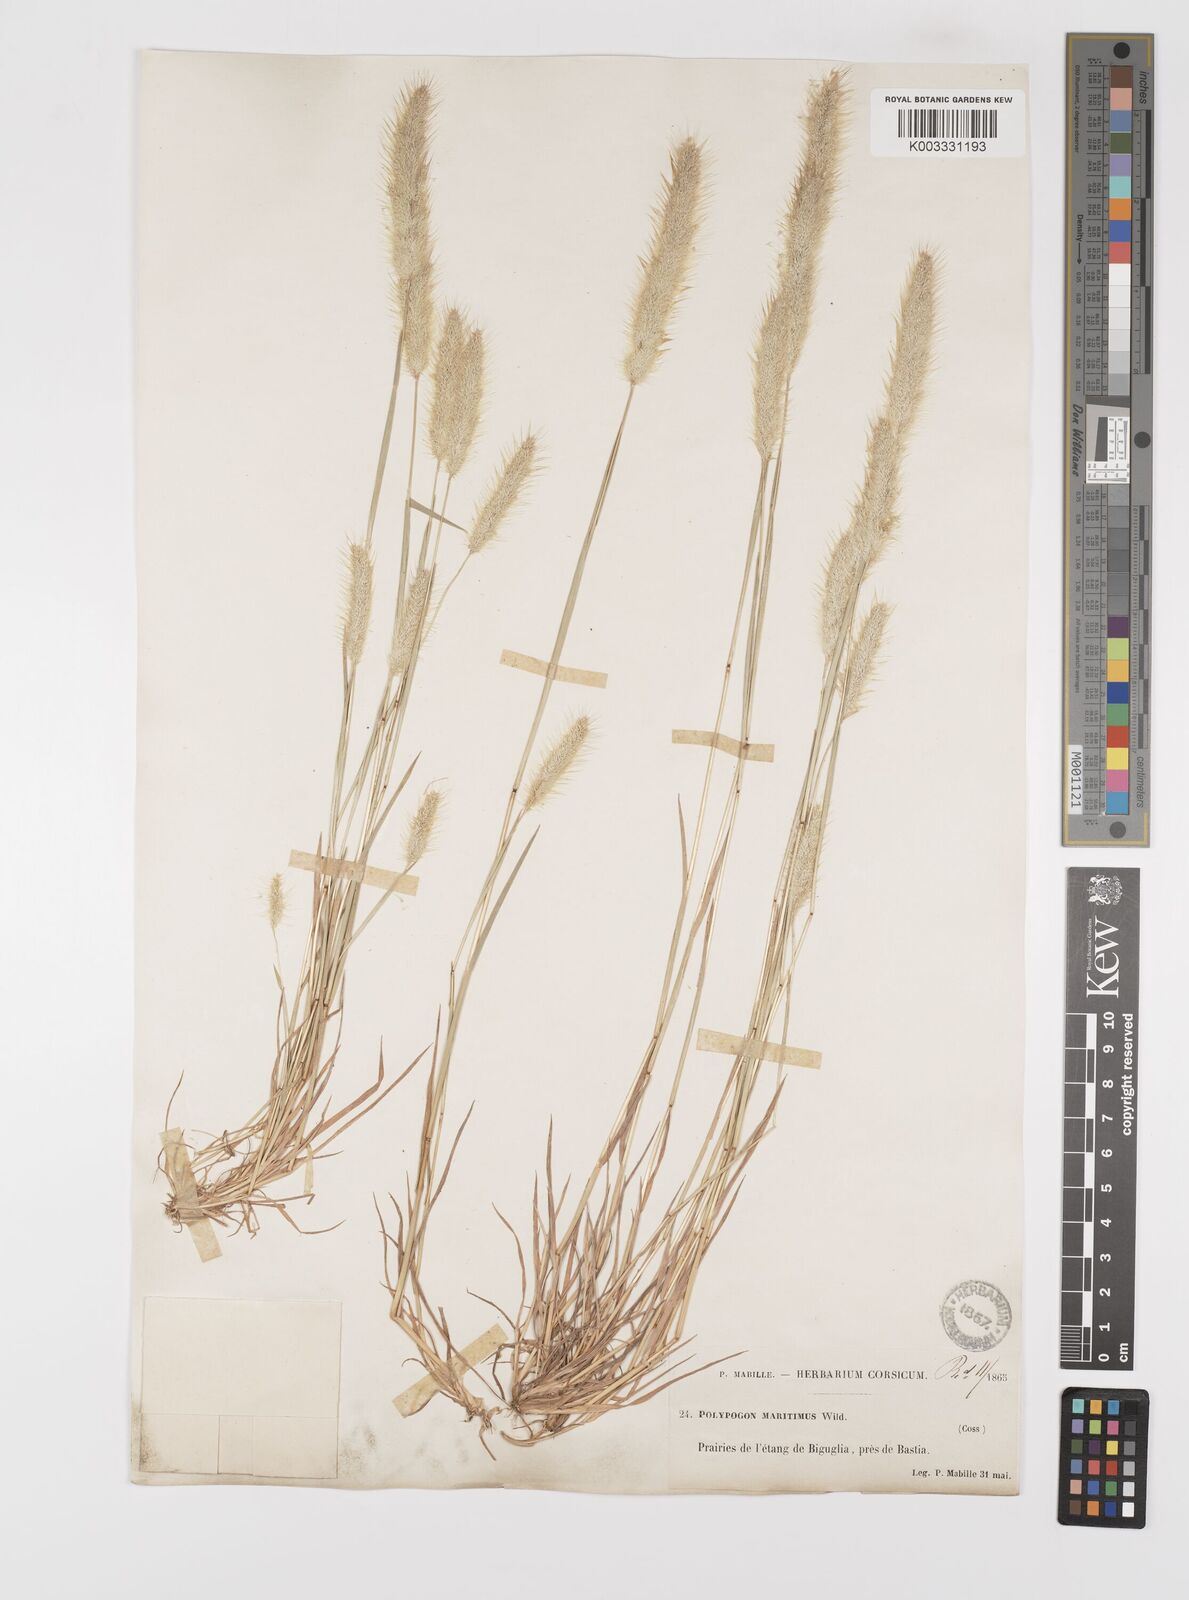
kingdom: Plantae
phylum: Tracheophyta
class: Liliopsida
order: Poales
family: Poaceae
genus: Polypogon
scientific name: Polypogon maritimus
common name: Mediterranean rabbitsfoot grass
